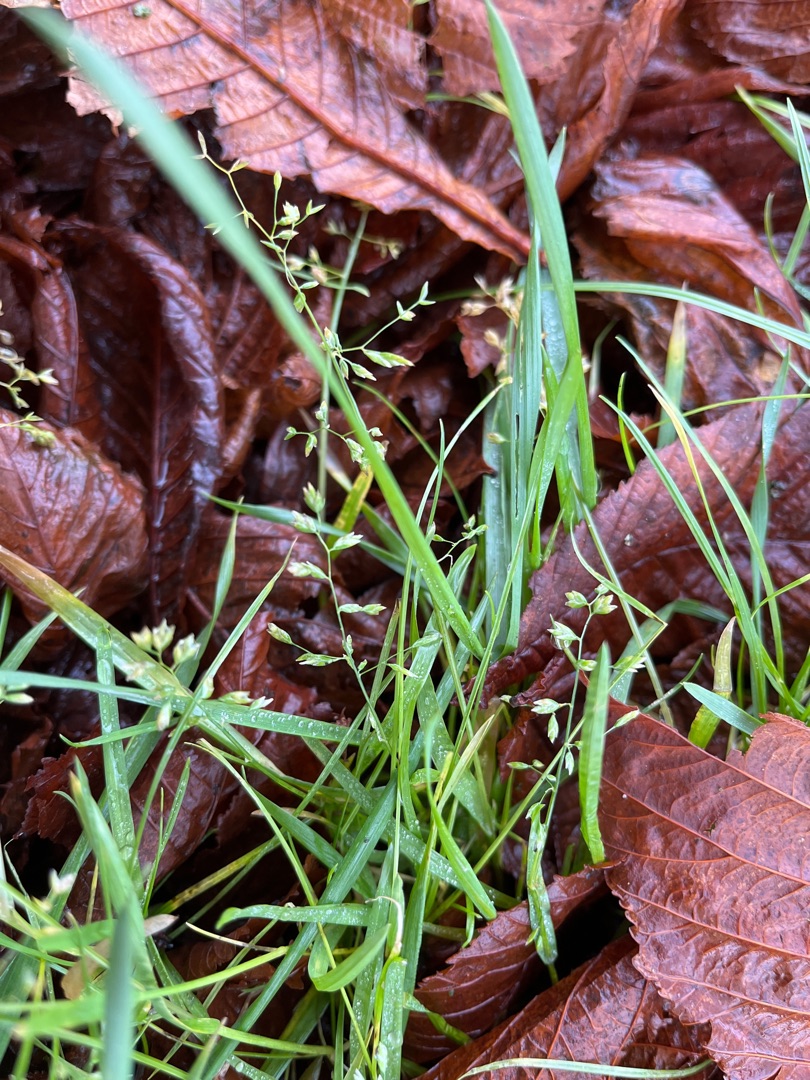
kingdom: Plantae
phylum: Tracheophyta
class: Liliopsida
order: Poales
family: Poaceae
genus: Poa
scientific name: Poa annua
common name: Enårig rapgræs
